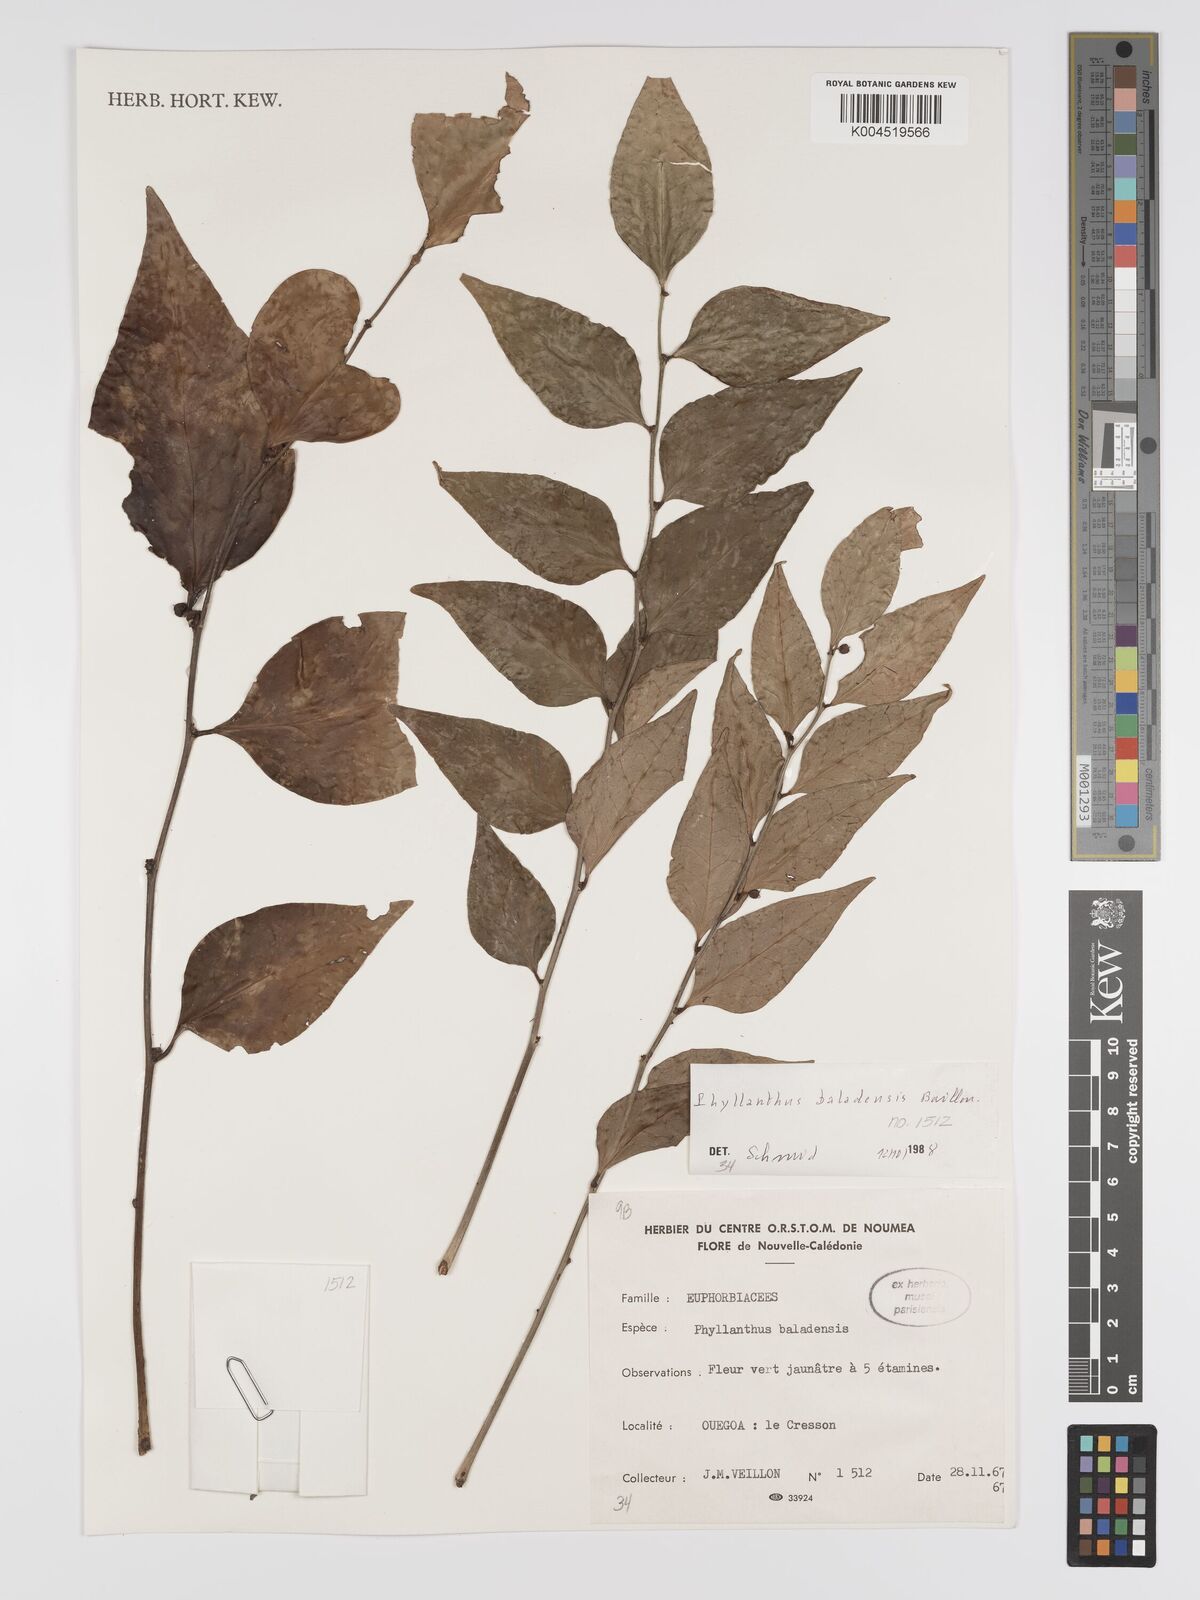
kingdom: Plantae
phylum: Tracheophyta
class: Magnoliopsida
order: Malpighiales
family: Phyllanthaceae
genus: Phyllanthus
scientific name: Phyllanthus baladensis
